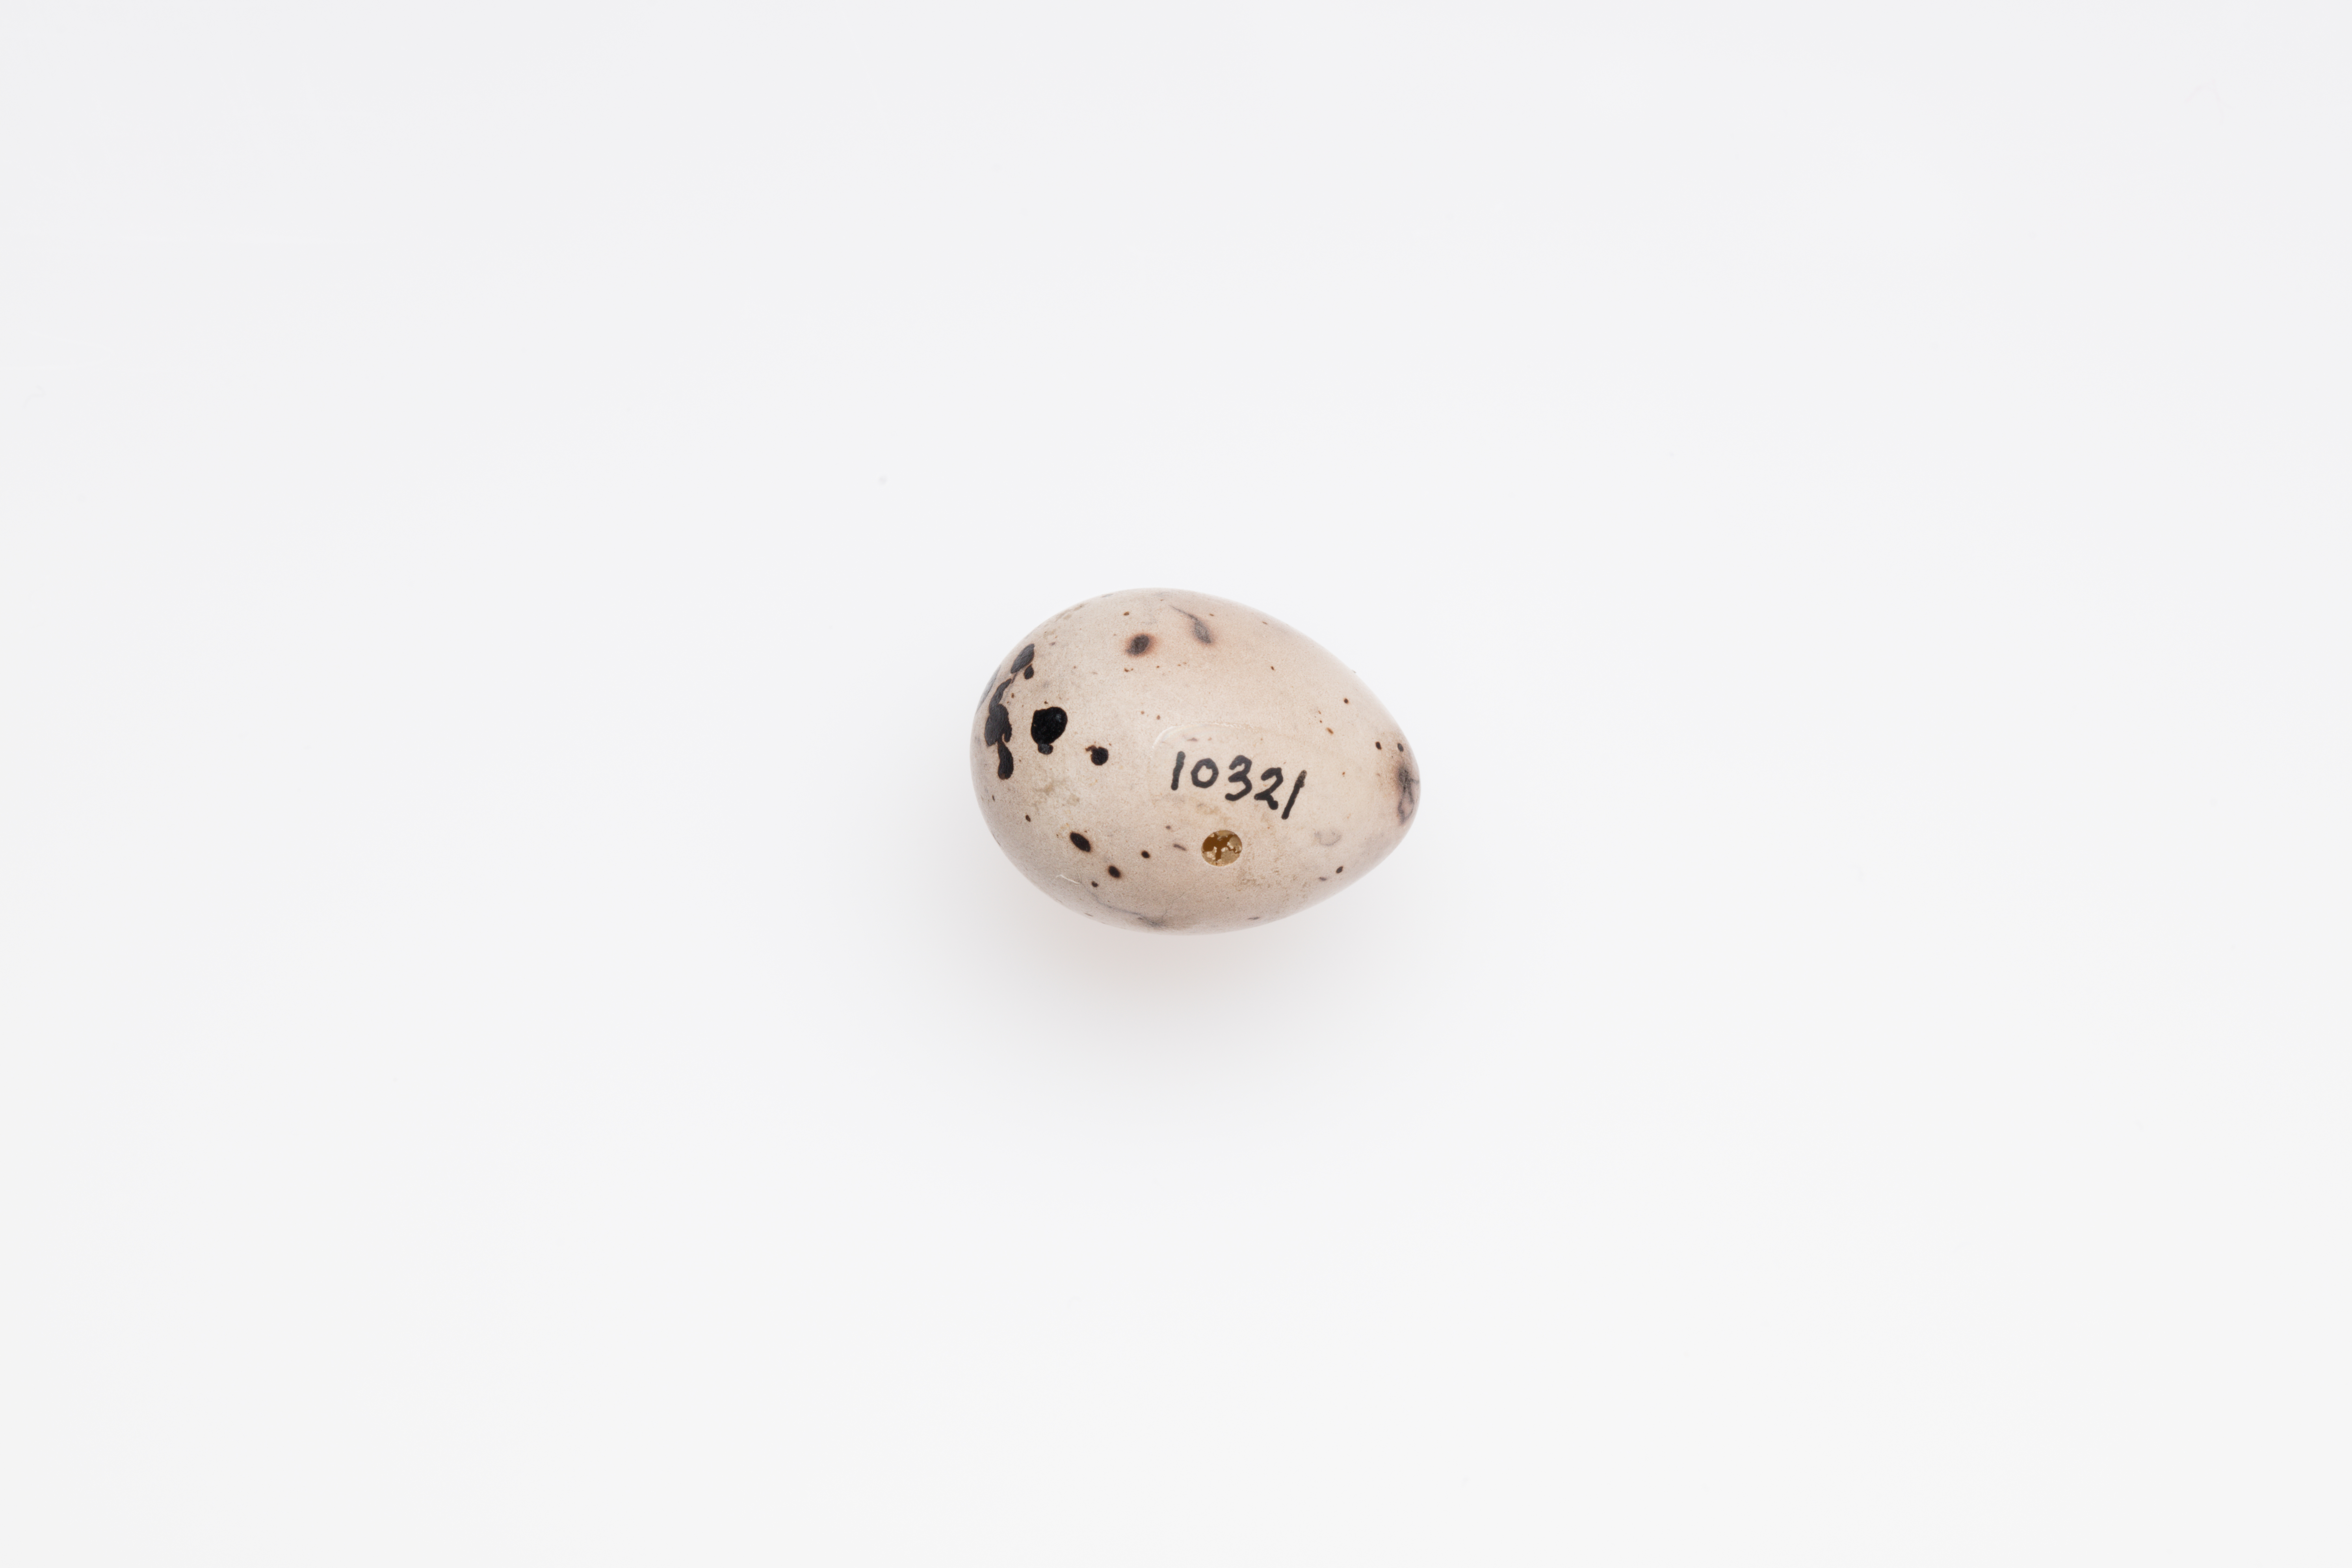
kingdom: Animalia
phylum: Chordata
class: Aves
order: Passeriformes
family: Emberizidae
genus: Emberiza
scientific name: Emberiza schoeniclus
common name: Reed bunting
